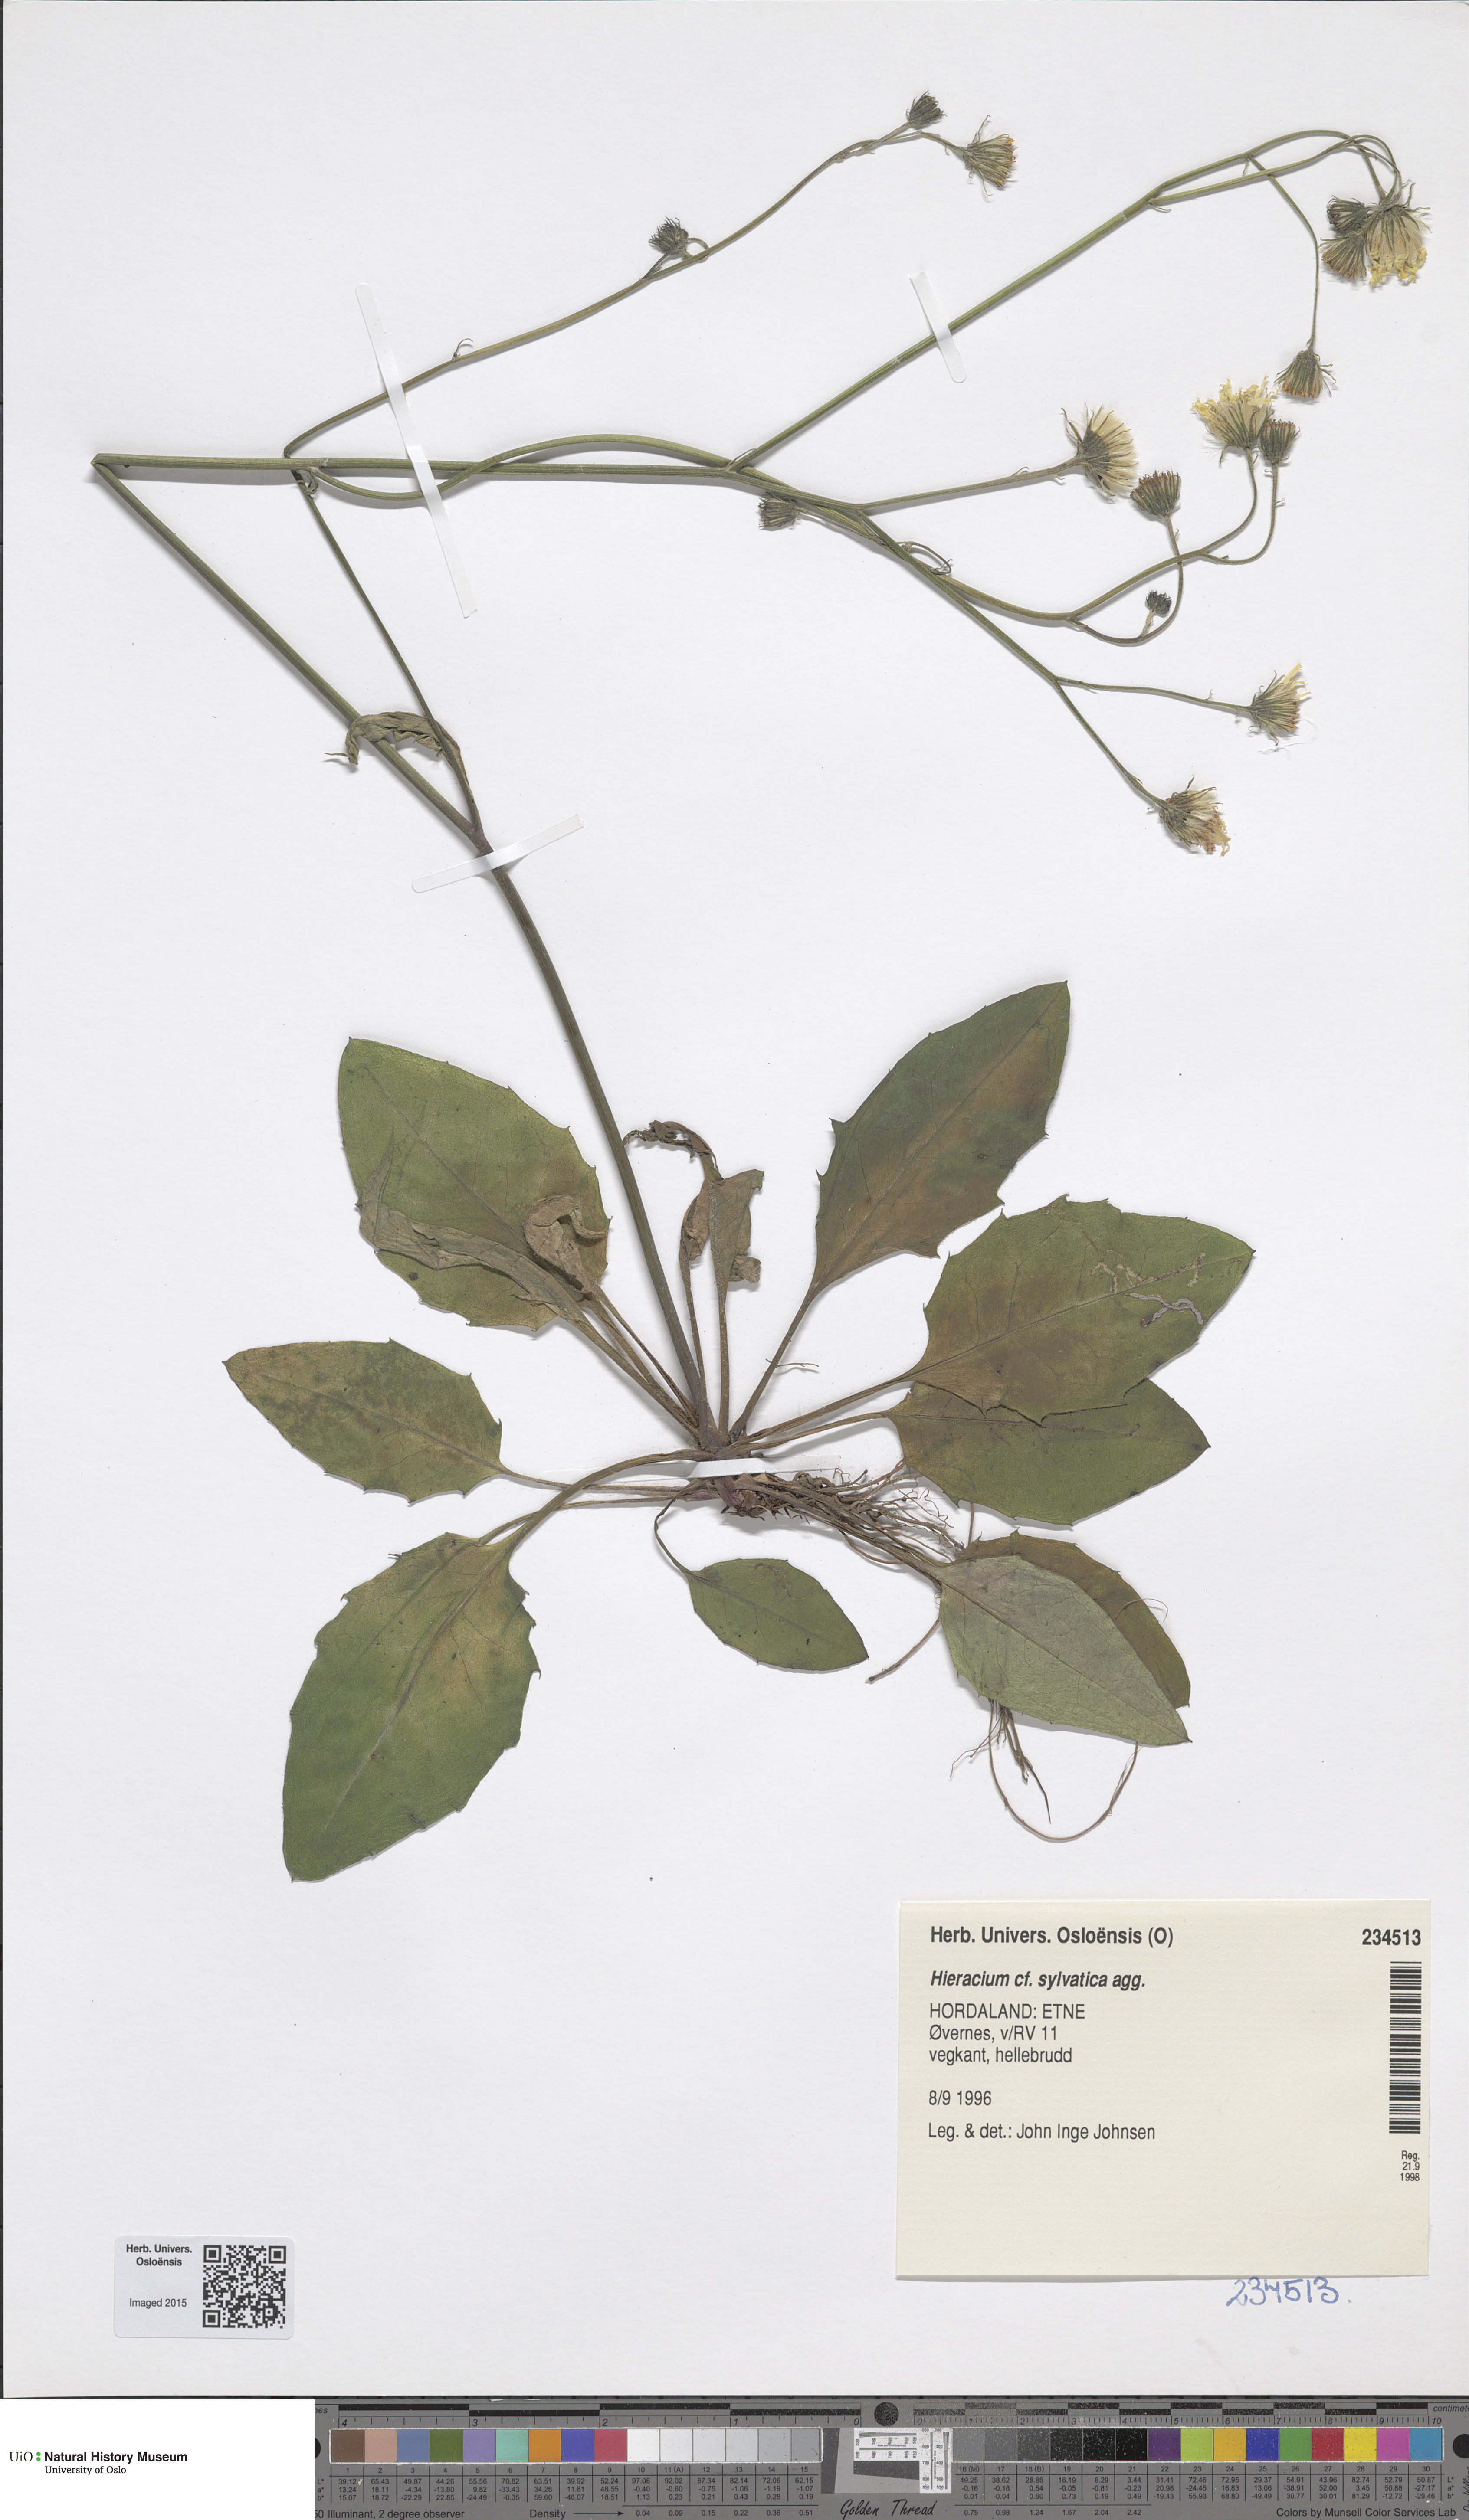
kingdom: Plantae
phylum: Tracheophyta
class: Magnoliopsida
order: Asterales
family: Asteraceae
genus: Hieracium
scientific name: Hieracium
